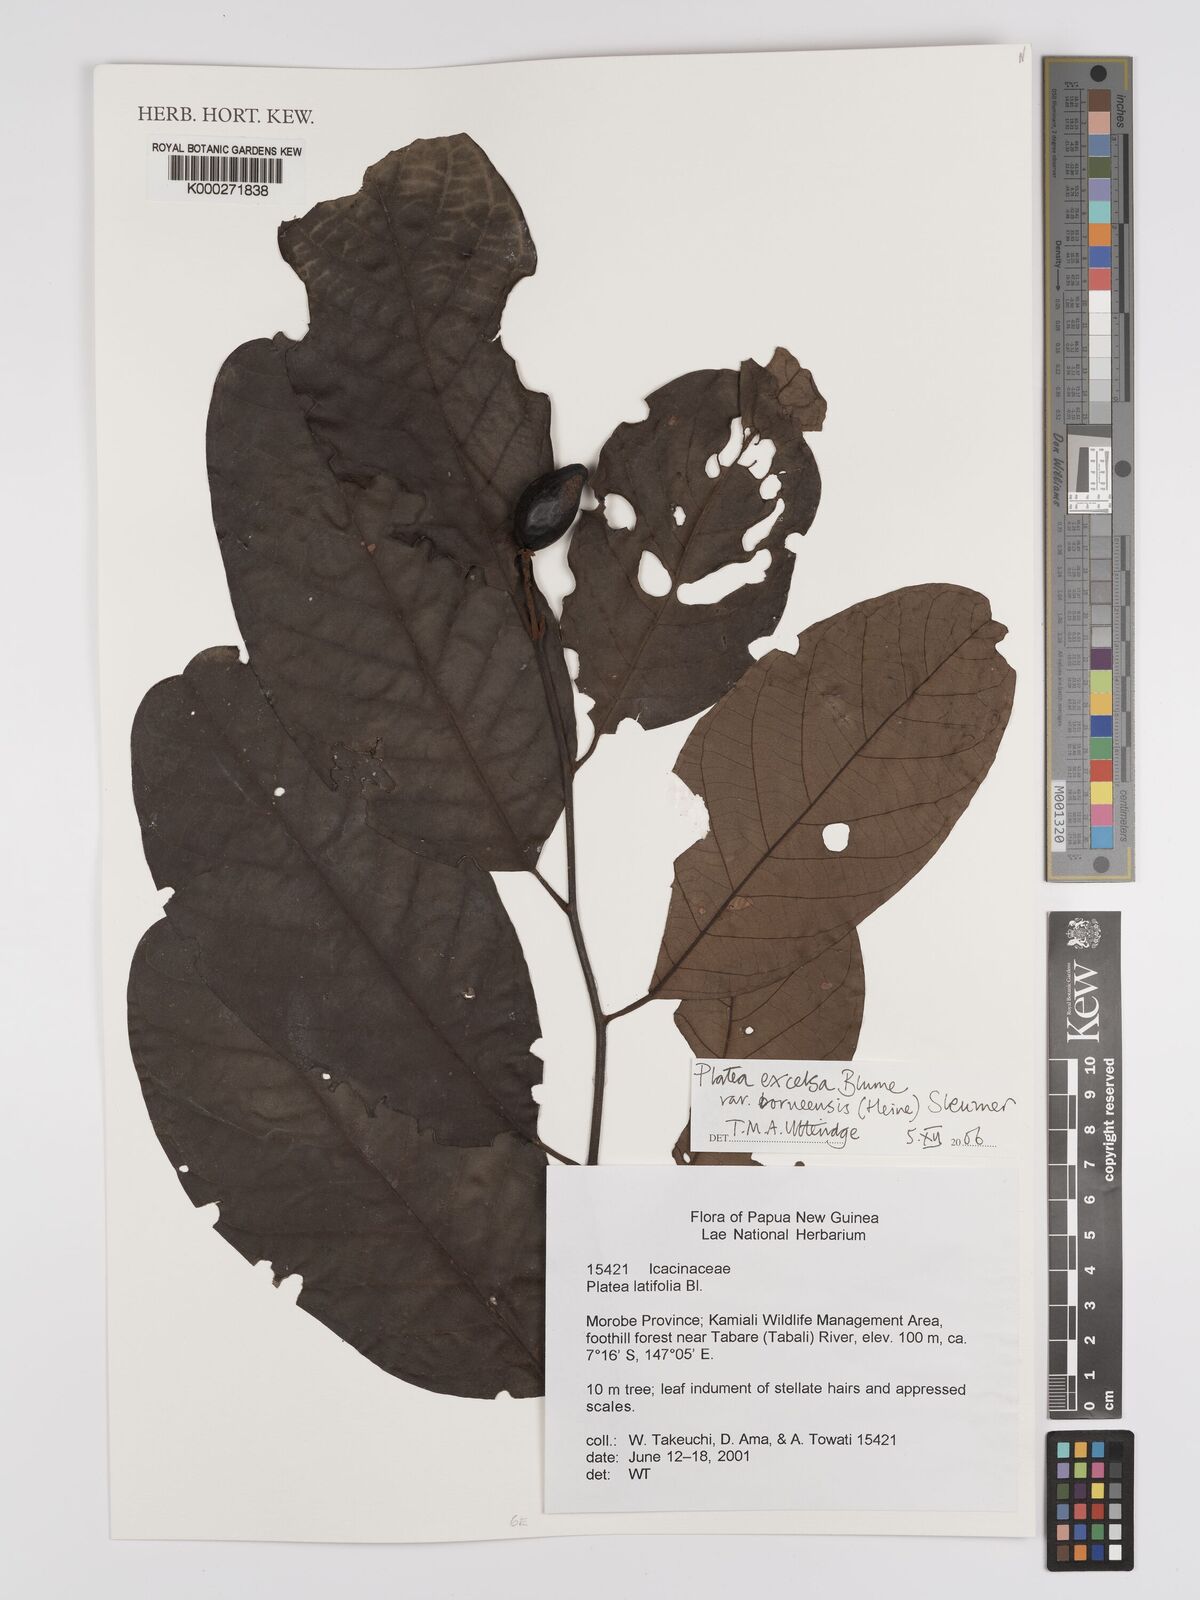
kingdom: Plantae
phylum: Tracheophyta
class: Magnoliopsida
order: Metteniusales
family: Metteniusaceae
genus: Platea
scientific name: Platea excelsa
